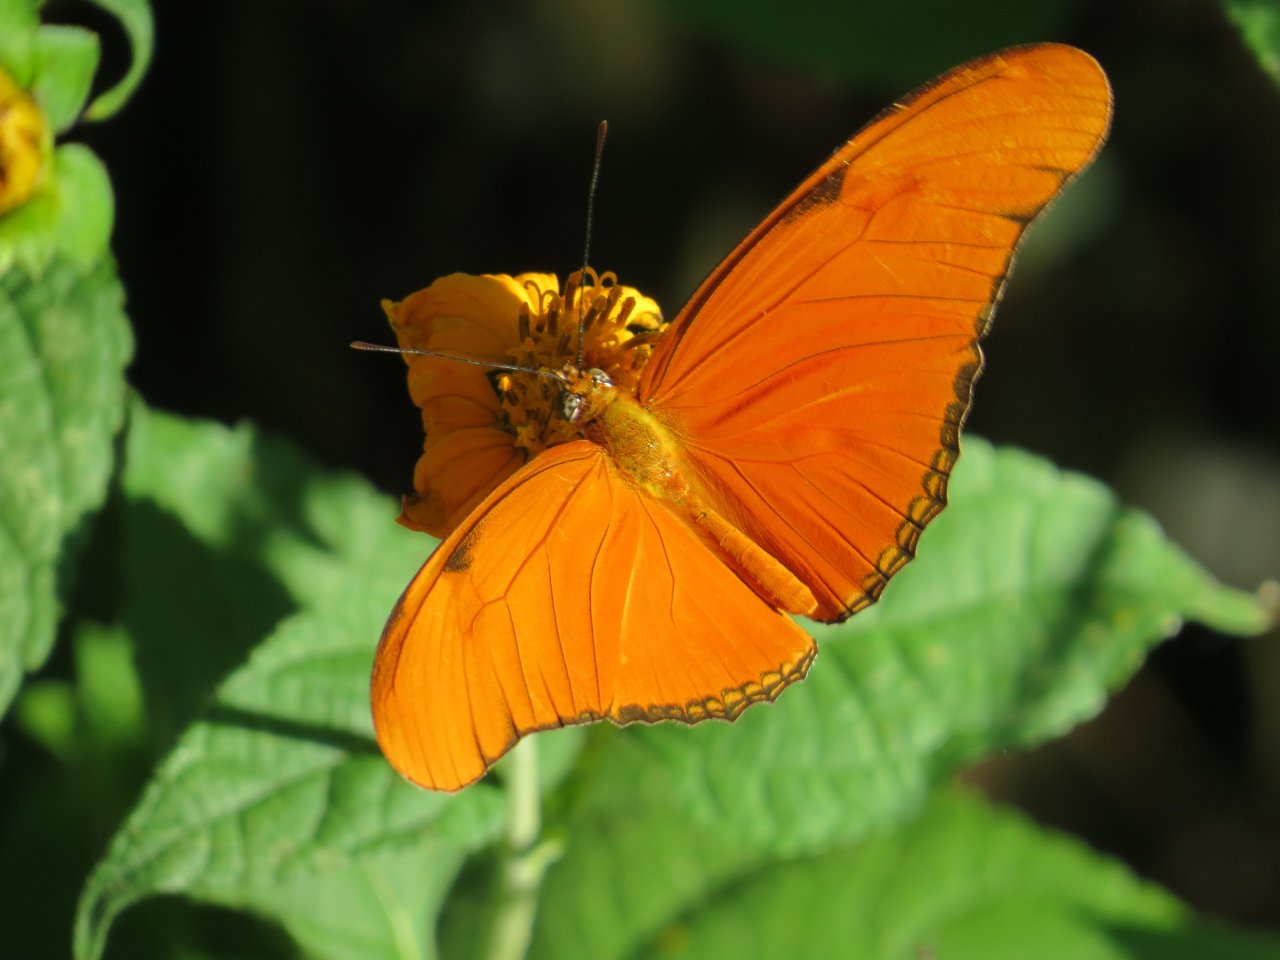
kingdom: Animalia
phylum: Arthropoda
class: Insecta
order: Lepidoptera
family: Nymphalidae
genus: Dryas
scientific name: Dryas iulia
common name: Julia
